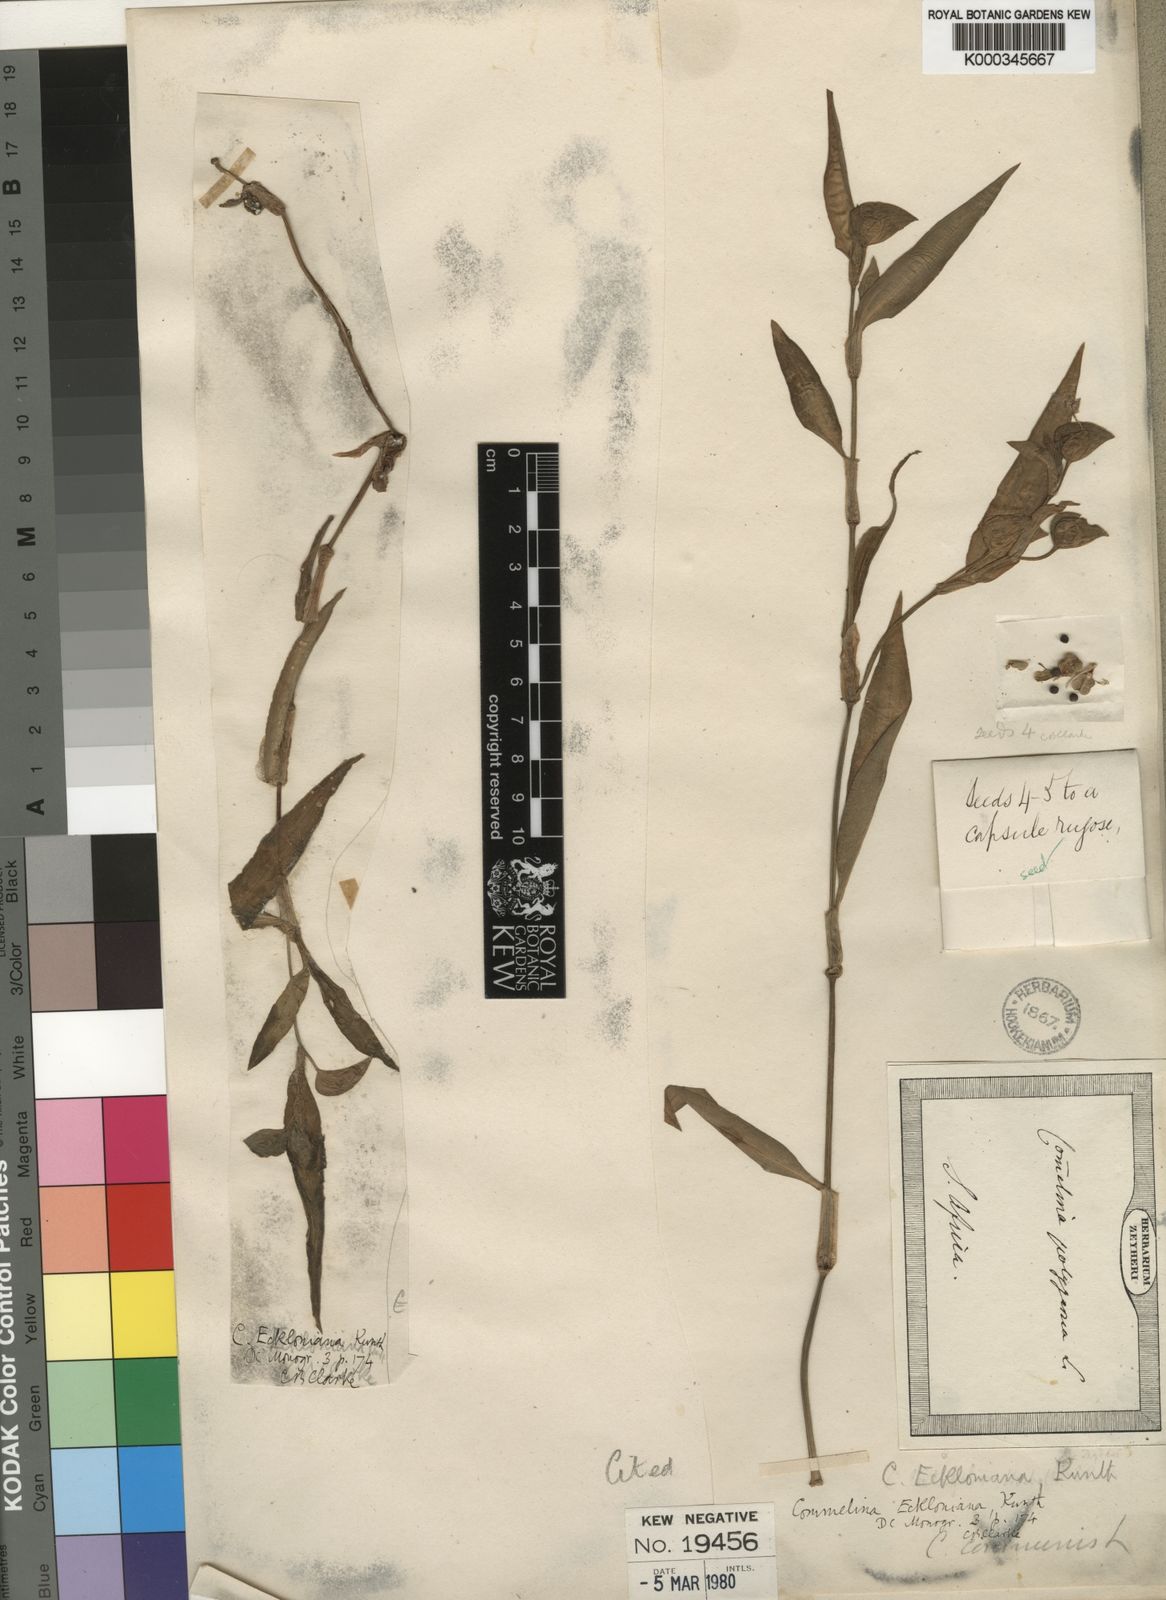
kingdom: Plantae
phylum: Tracheophyta
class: Liliopsida
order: Commelinales
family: Commelinaceae
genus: Commelina
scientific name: Commelina eckloniana
